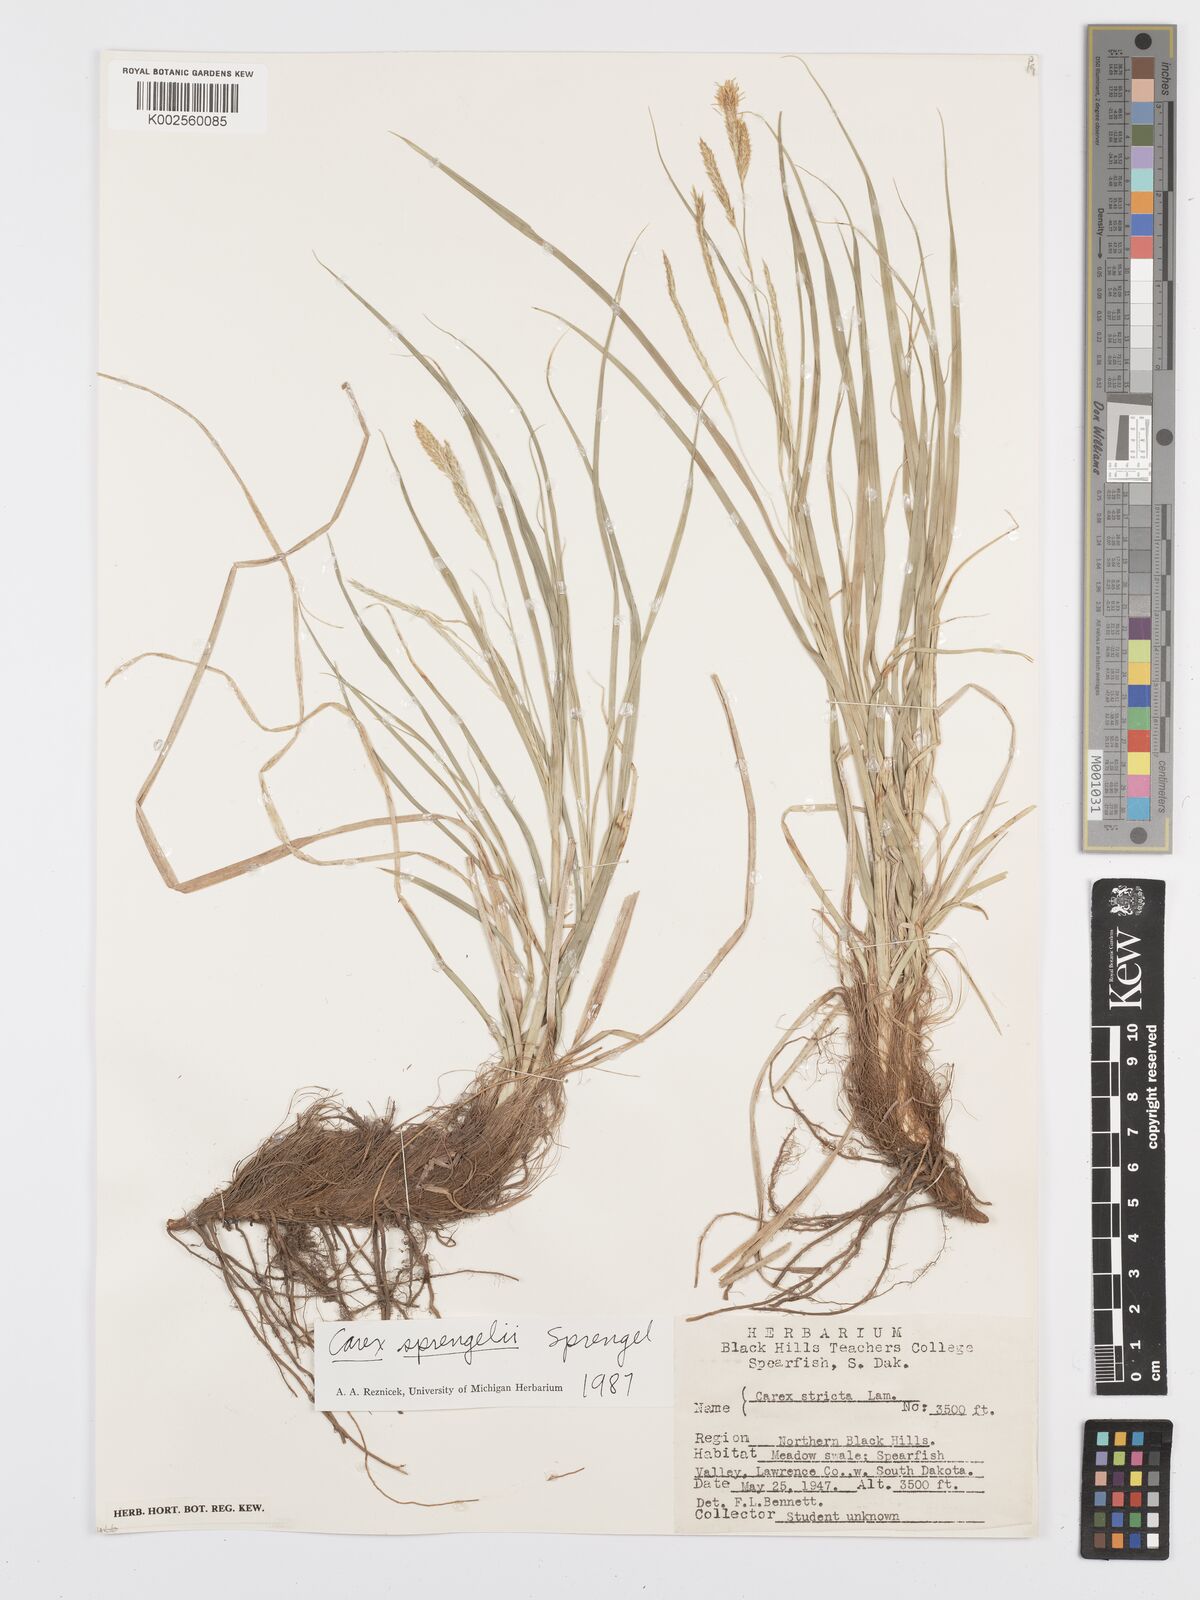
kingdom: Plantae
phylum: Tracheophyta
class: Liliopsida
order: Poales
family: Cyperaceae
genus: Carex
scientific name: Carex sprengelii
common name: Long-beaked sedge
